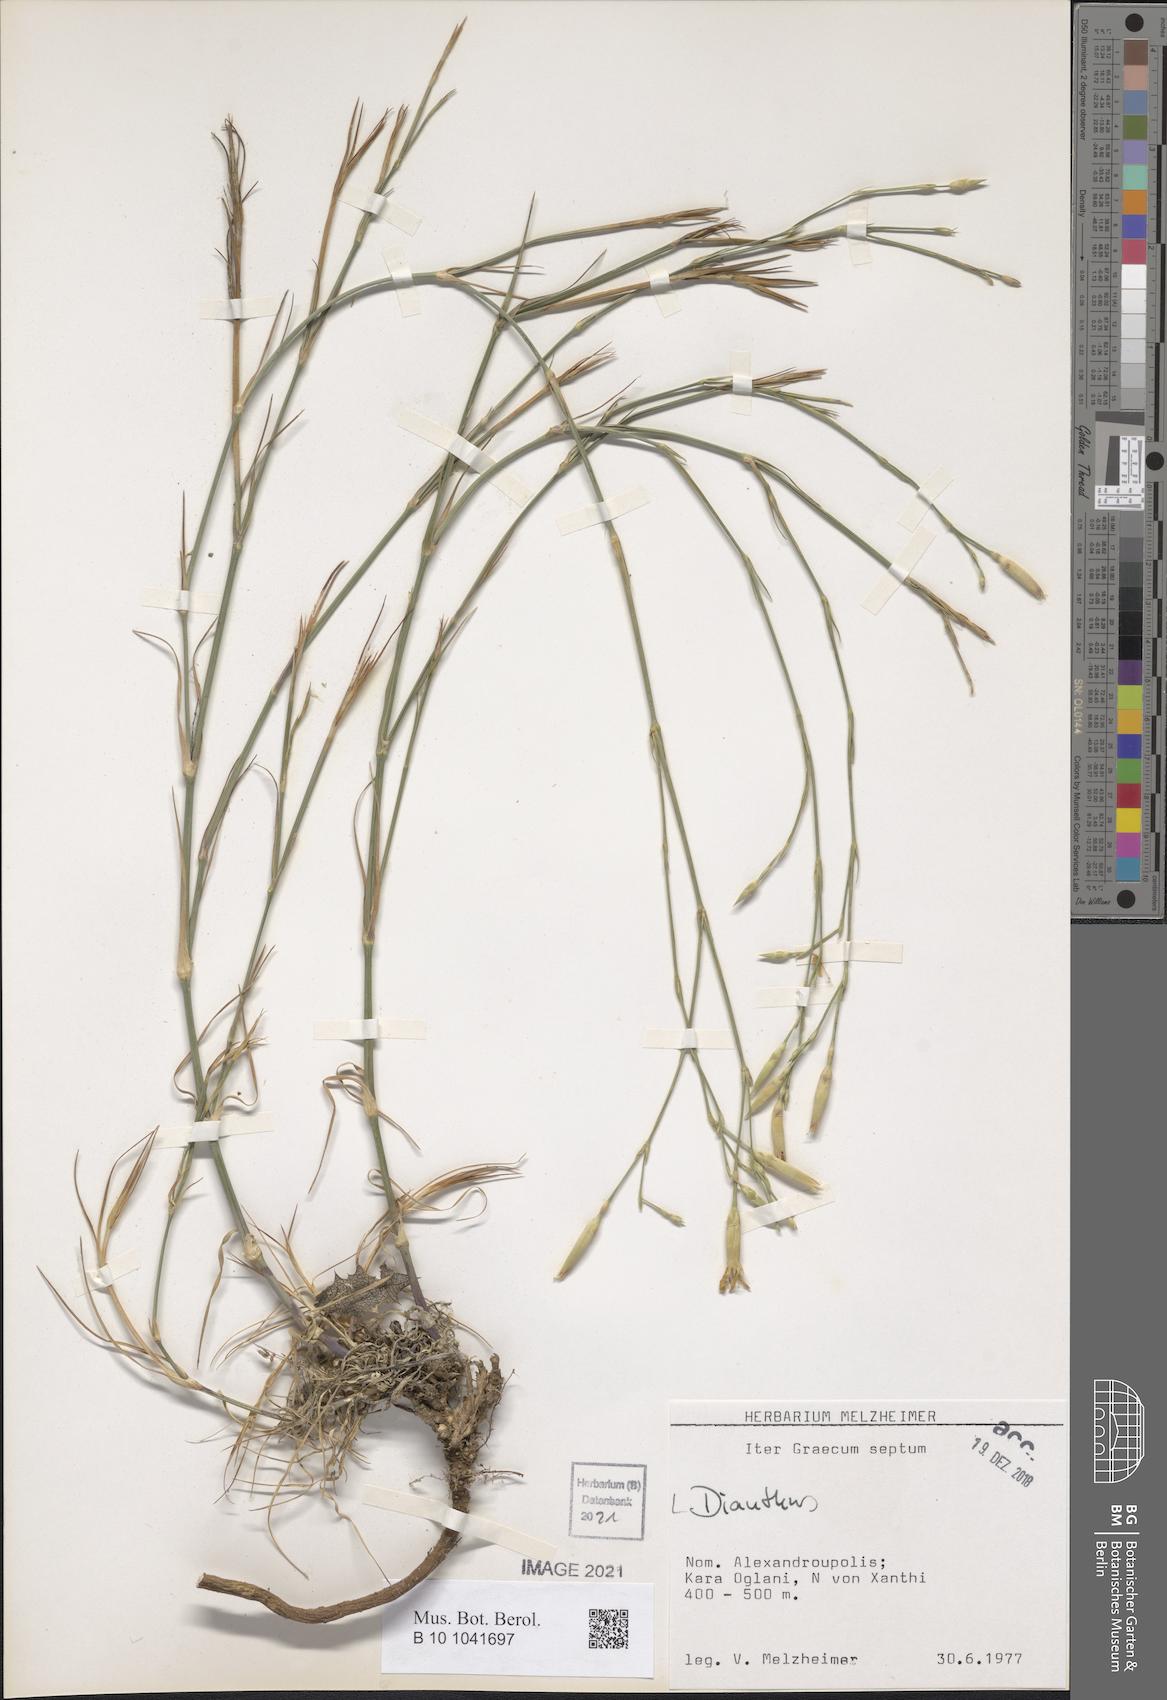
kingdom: Plantae
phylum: Tracheophyta
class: Magnoliopsida
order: Caryophyllales
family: Caryophyllaceae
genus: Dianthus
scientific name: Dianthus
